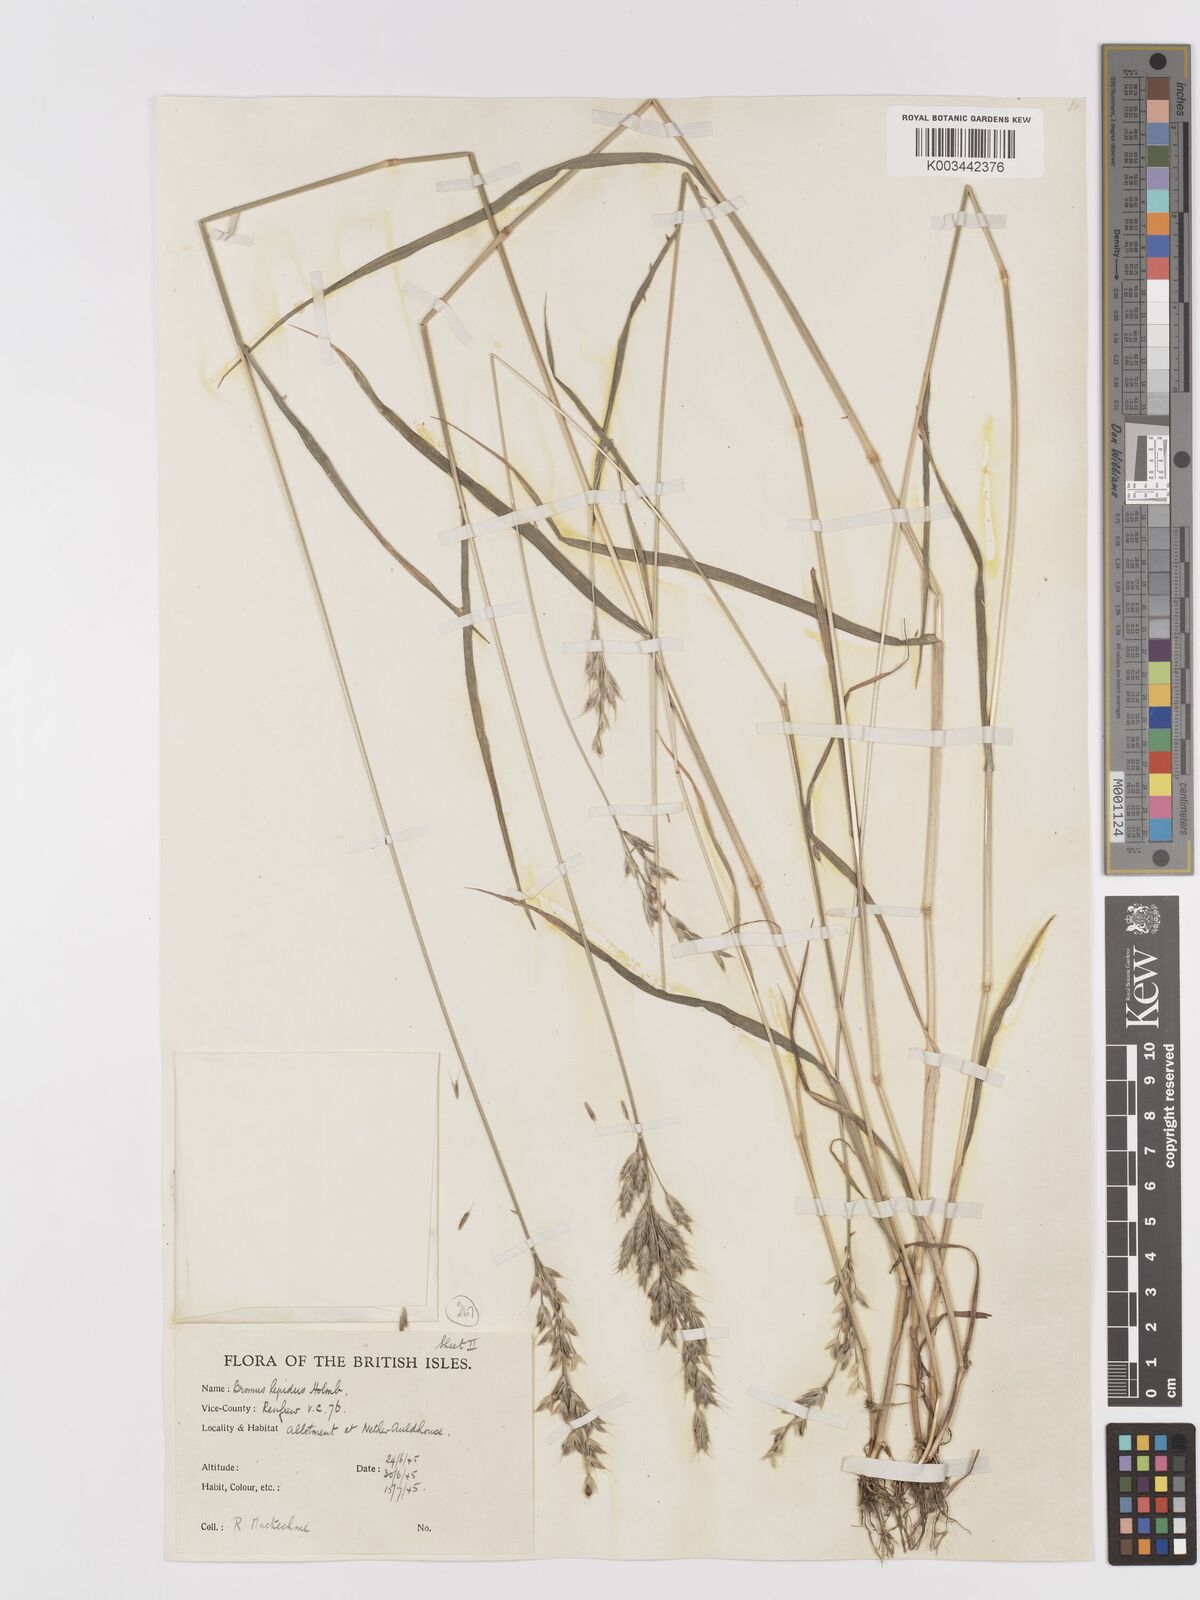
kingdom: Plantae
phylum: Tracheophyta
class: Liliopsida
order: Poales
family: Poaceae
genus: Bromus
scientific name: Bromus lepidus
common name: Slender soft-brome
